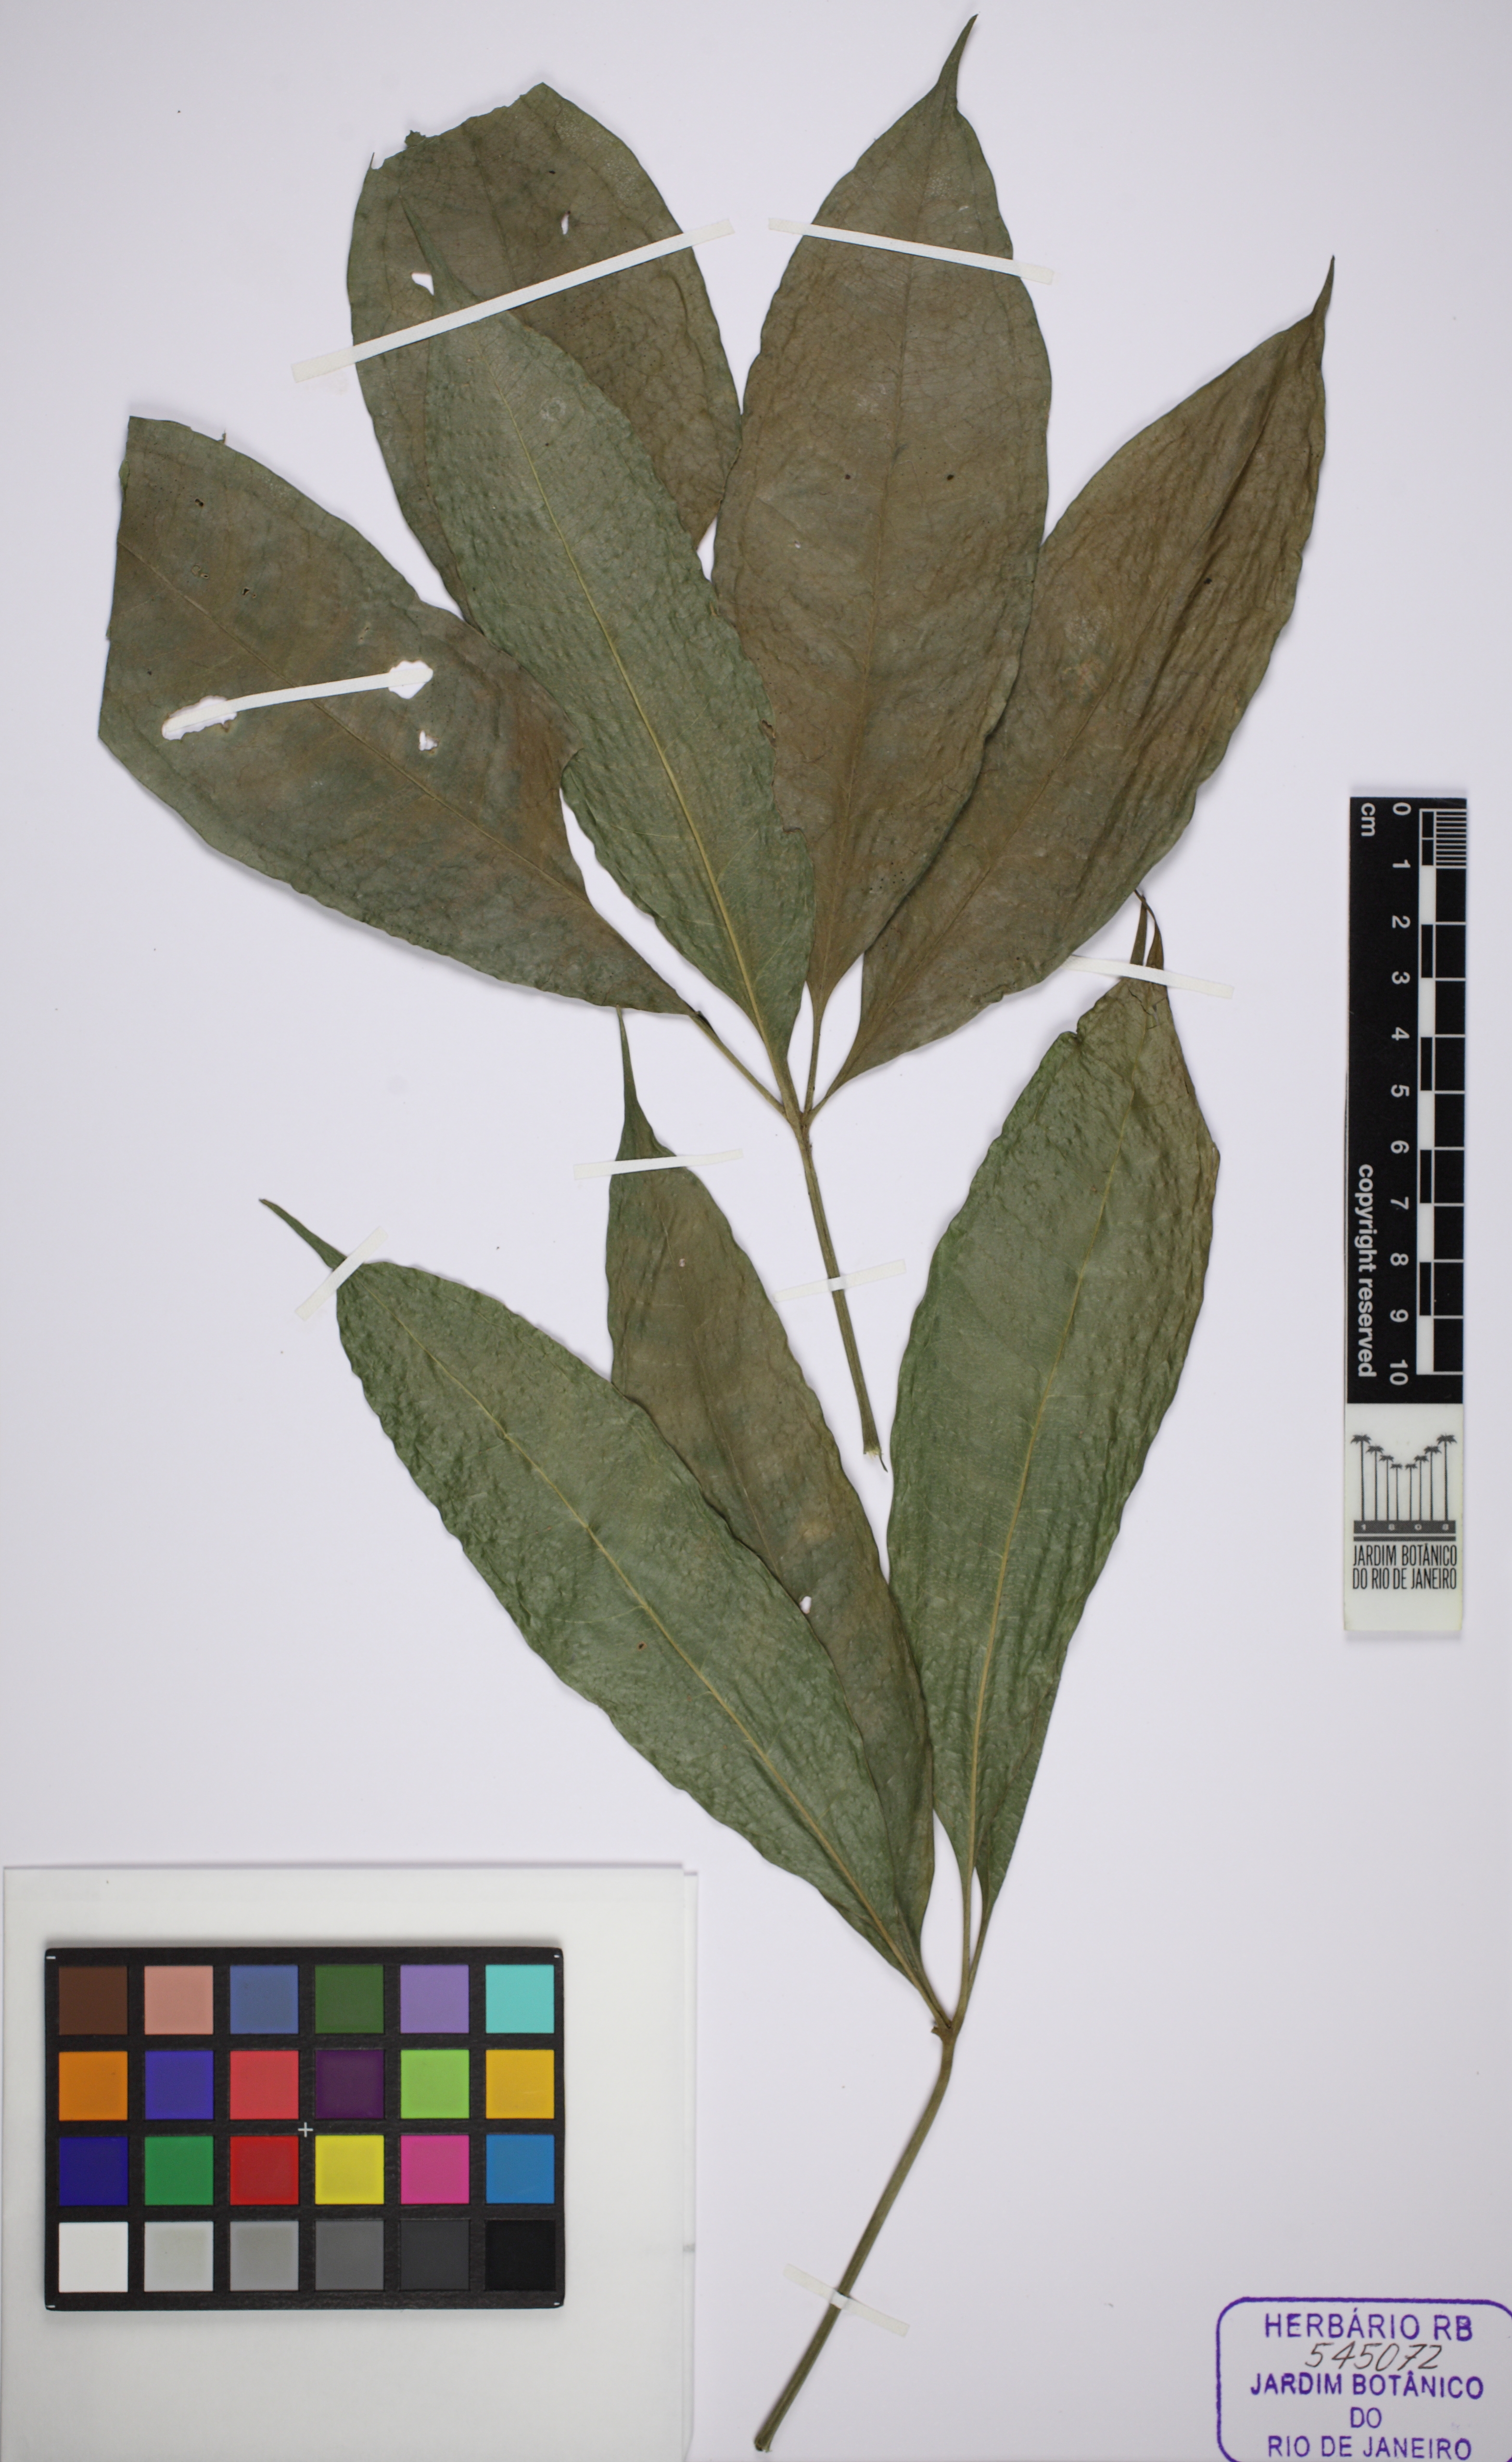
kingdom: Plantae
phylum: Tracheophyta
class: Liliopsida
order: Alismatales
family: Araceae
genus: Anthurium
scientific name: Anthurium pentaphyllum
